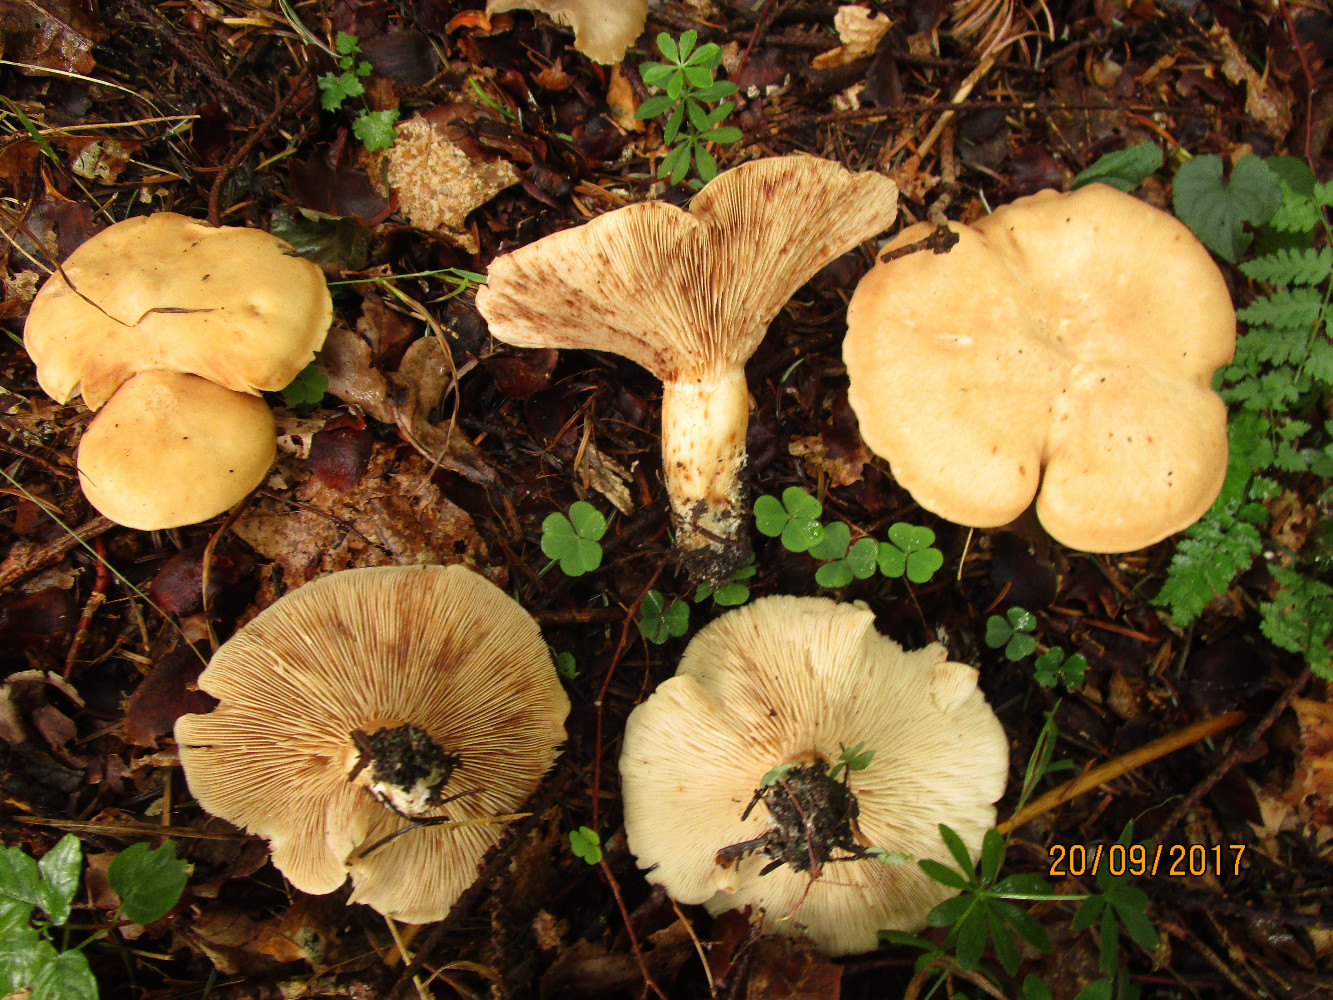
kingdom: Fungi
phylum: Basidiomycota
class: Agaricomycetes
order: Agaricales
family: Entolomataceae
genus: Clitopilus
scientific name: Clitopilus geminus
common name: kødfarvet troldhat
